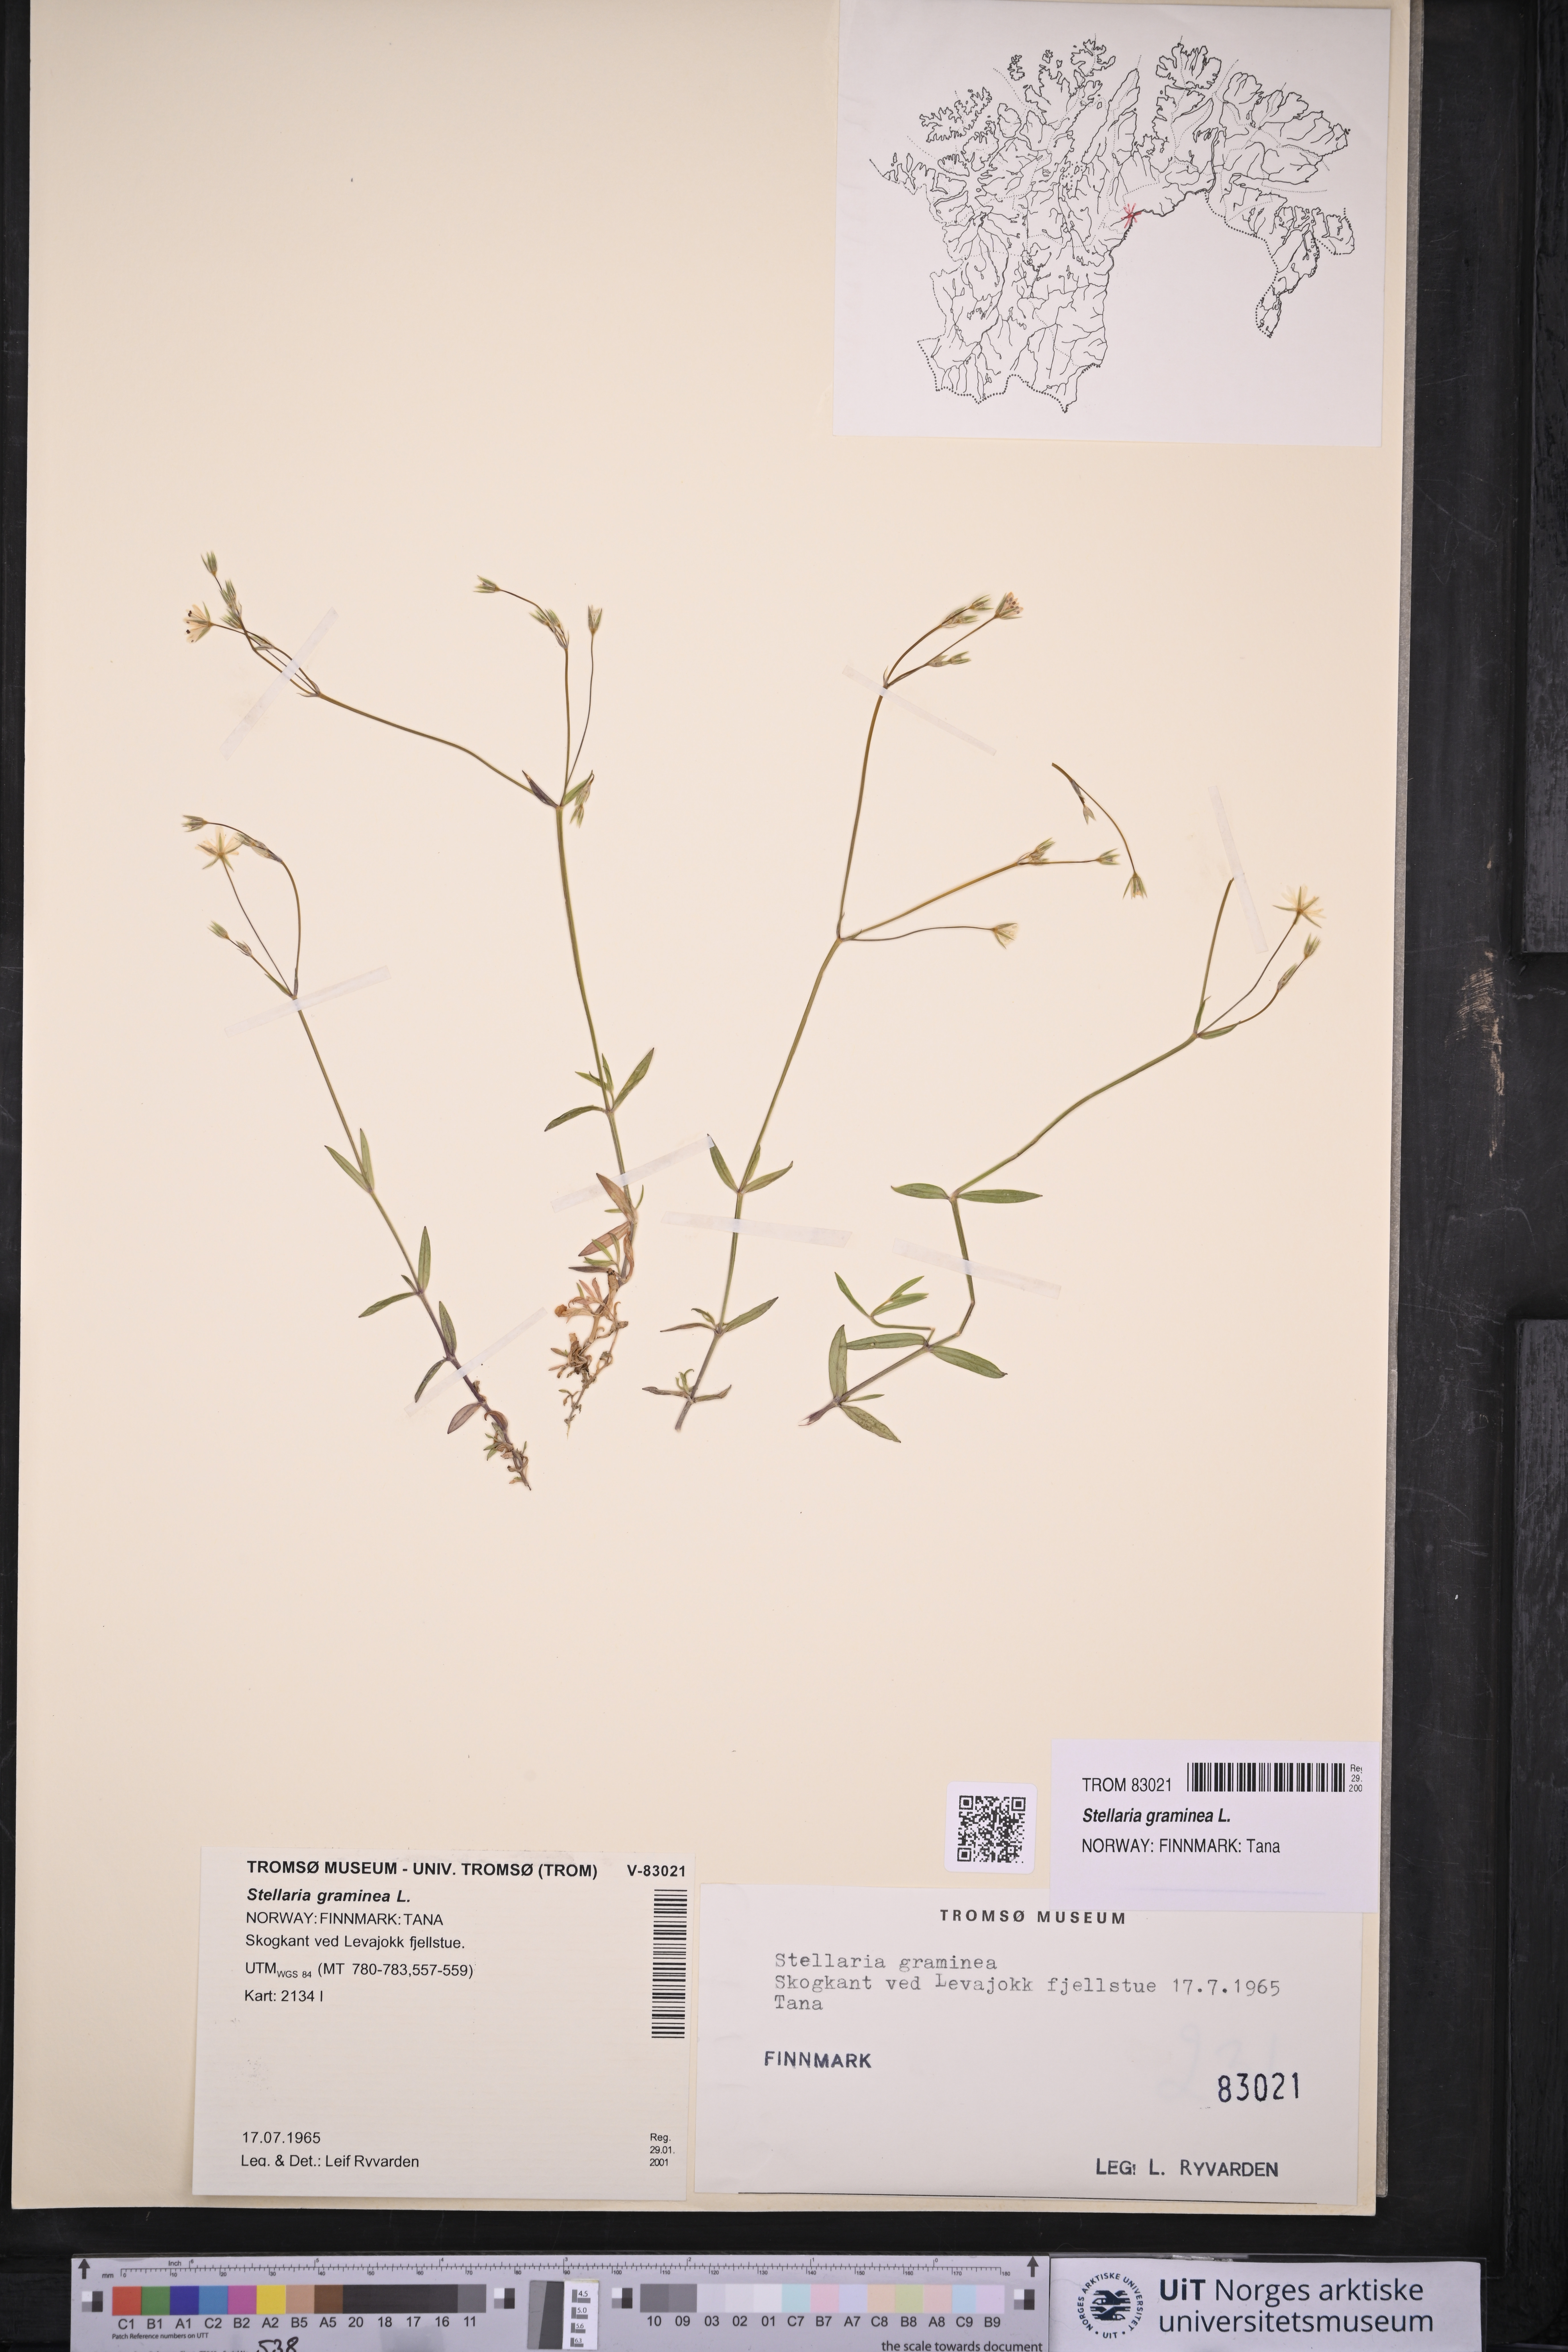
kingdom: Plantae
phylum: Tracheophyta
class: Magnoliopsida
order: Caryophyllales
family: Caryophyllaceae
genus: Stellaria
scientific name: Stellaria graminea
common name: Grass-like starwort
